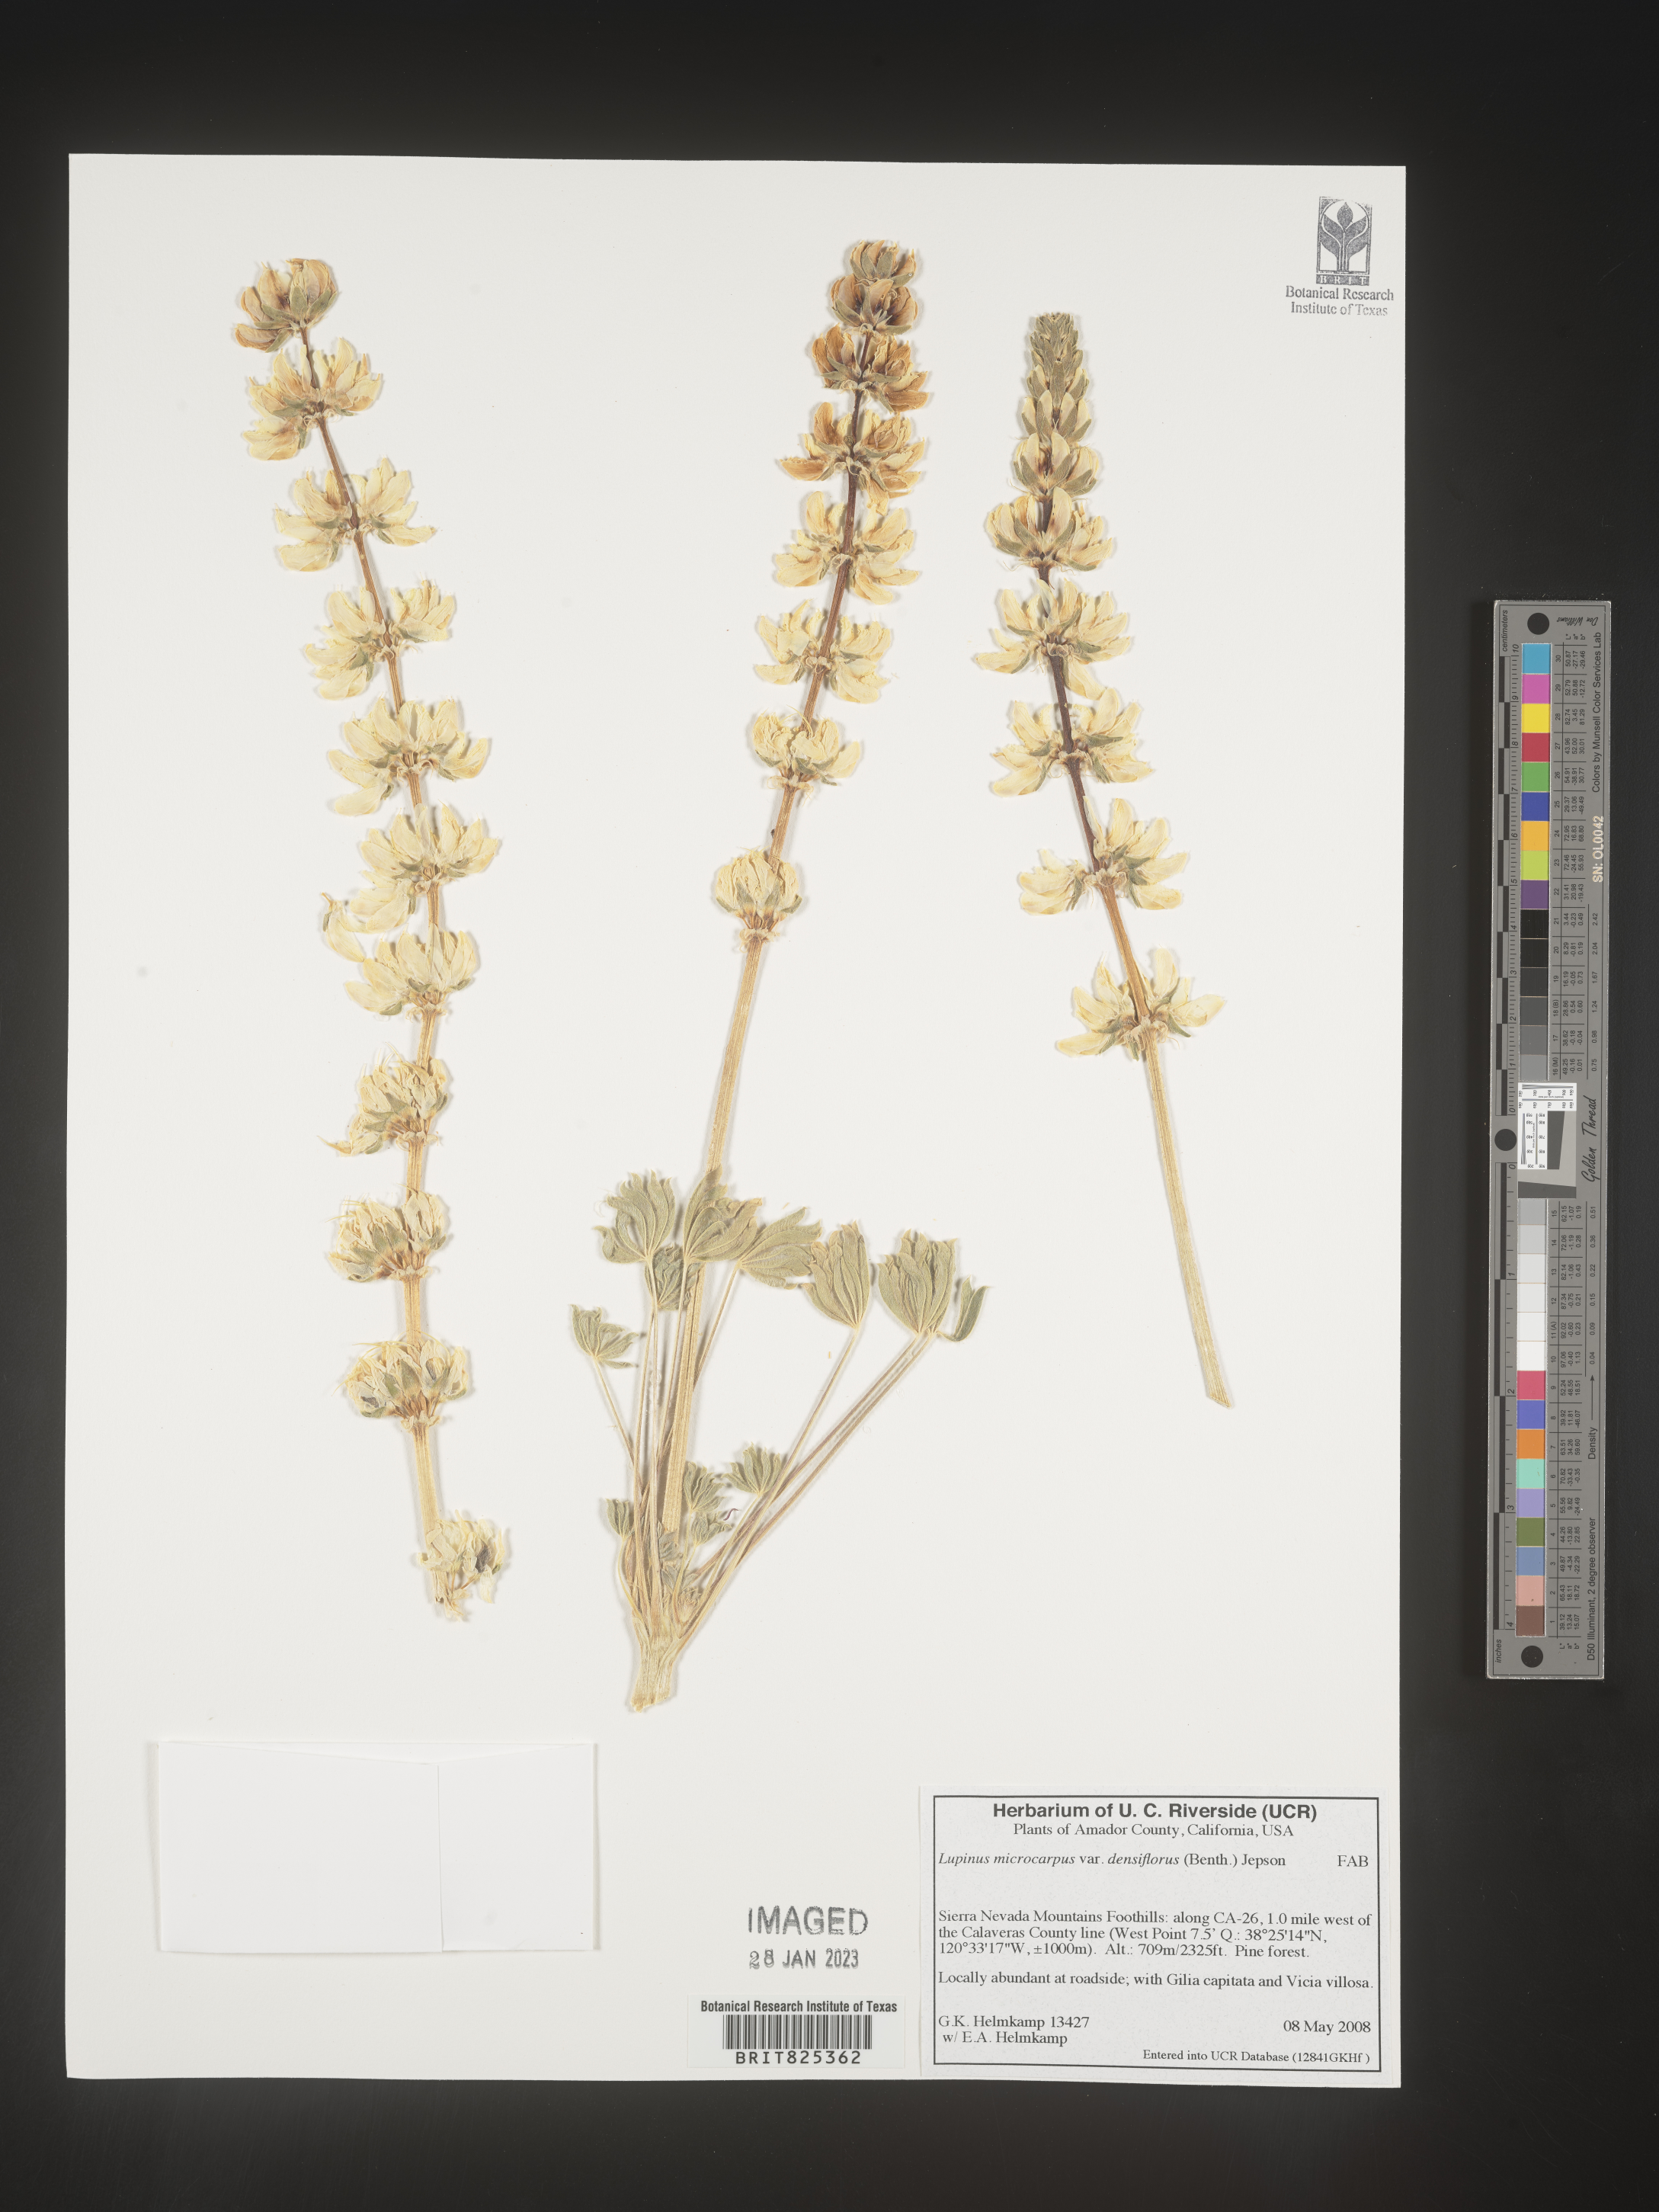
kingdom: Plantae
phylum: Tracheophyta
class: Magnoliopsida
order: Fabales
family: Fabaceae
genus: Lupinus
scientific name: Lupinus
